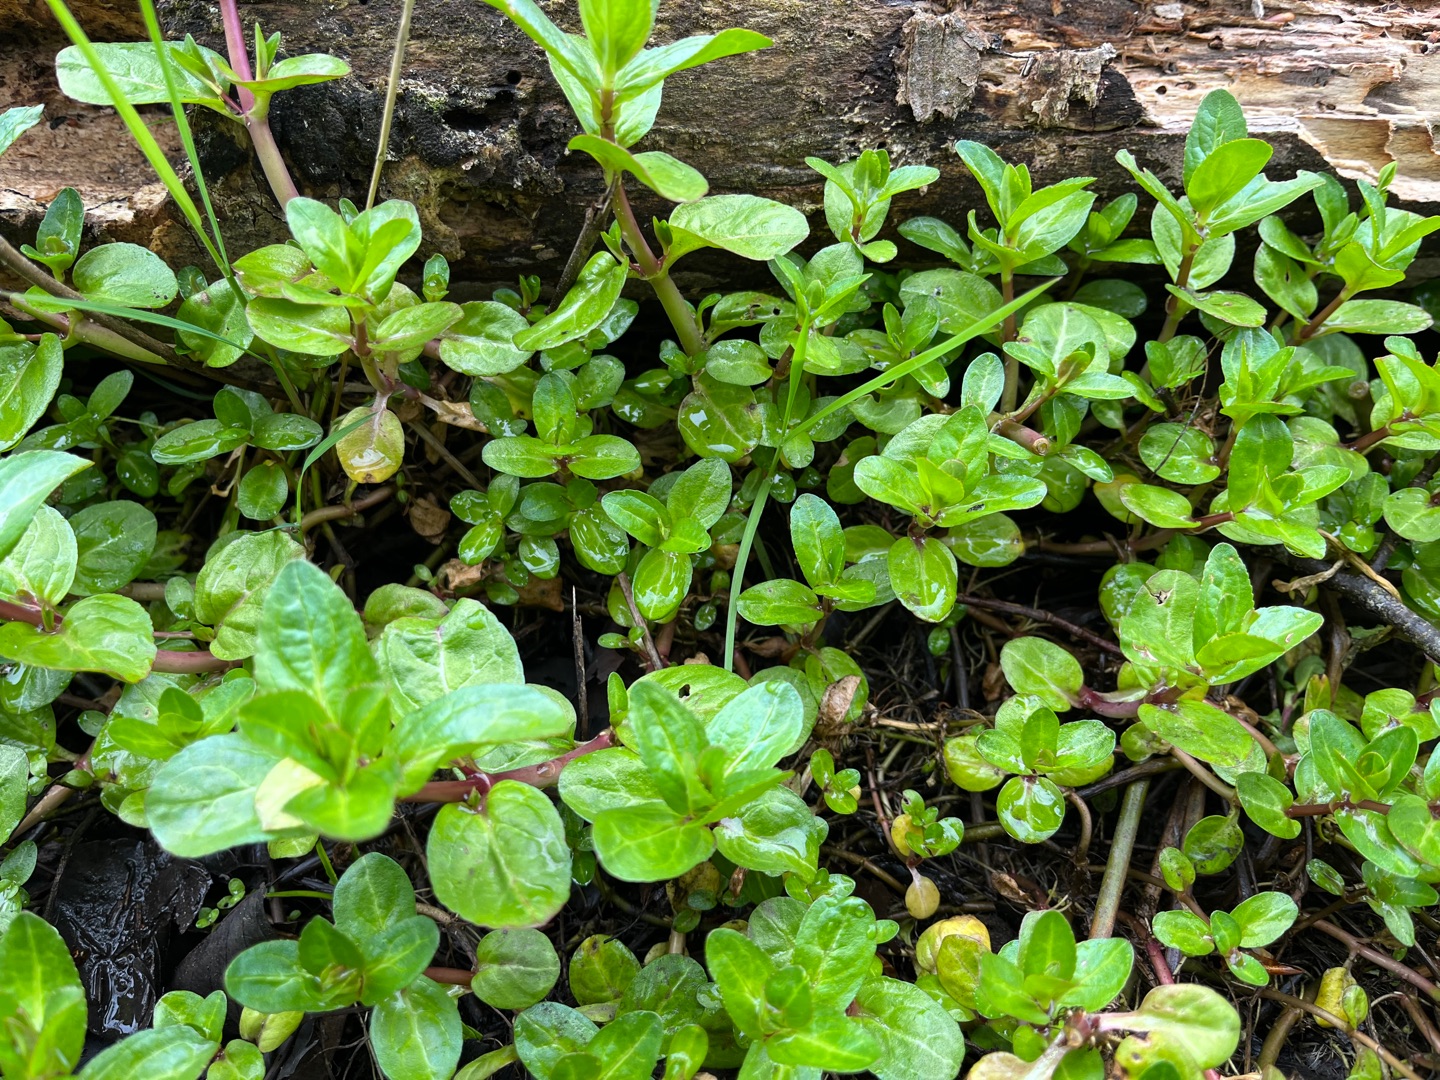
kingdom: Plantae
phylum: Tracheophyta
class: Magnoliopsida
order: Lamiales
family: Plantaginaceae
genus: Veronica
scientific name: Veronica beccabunga
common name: Tykbladet ærenpris
